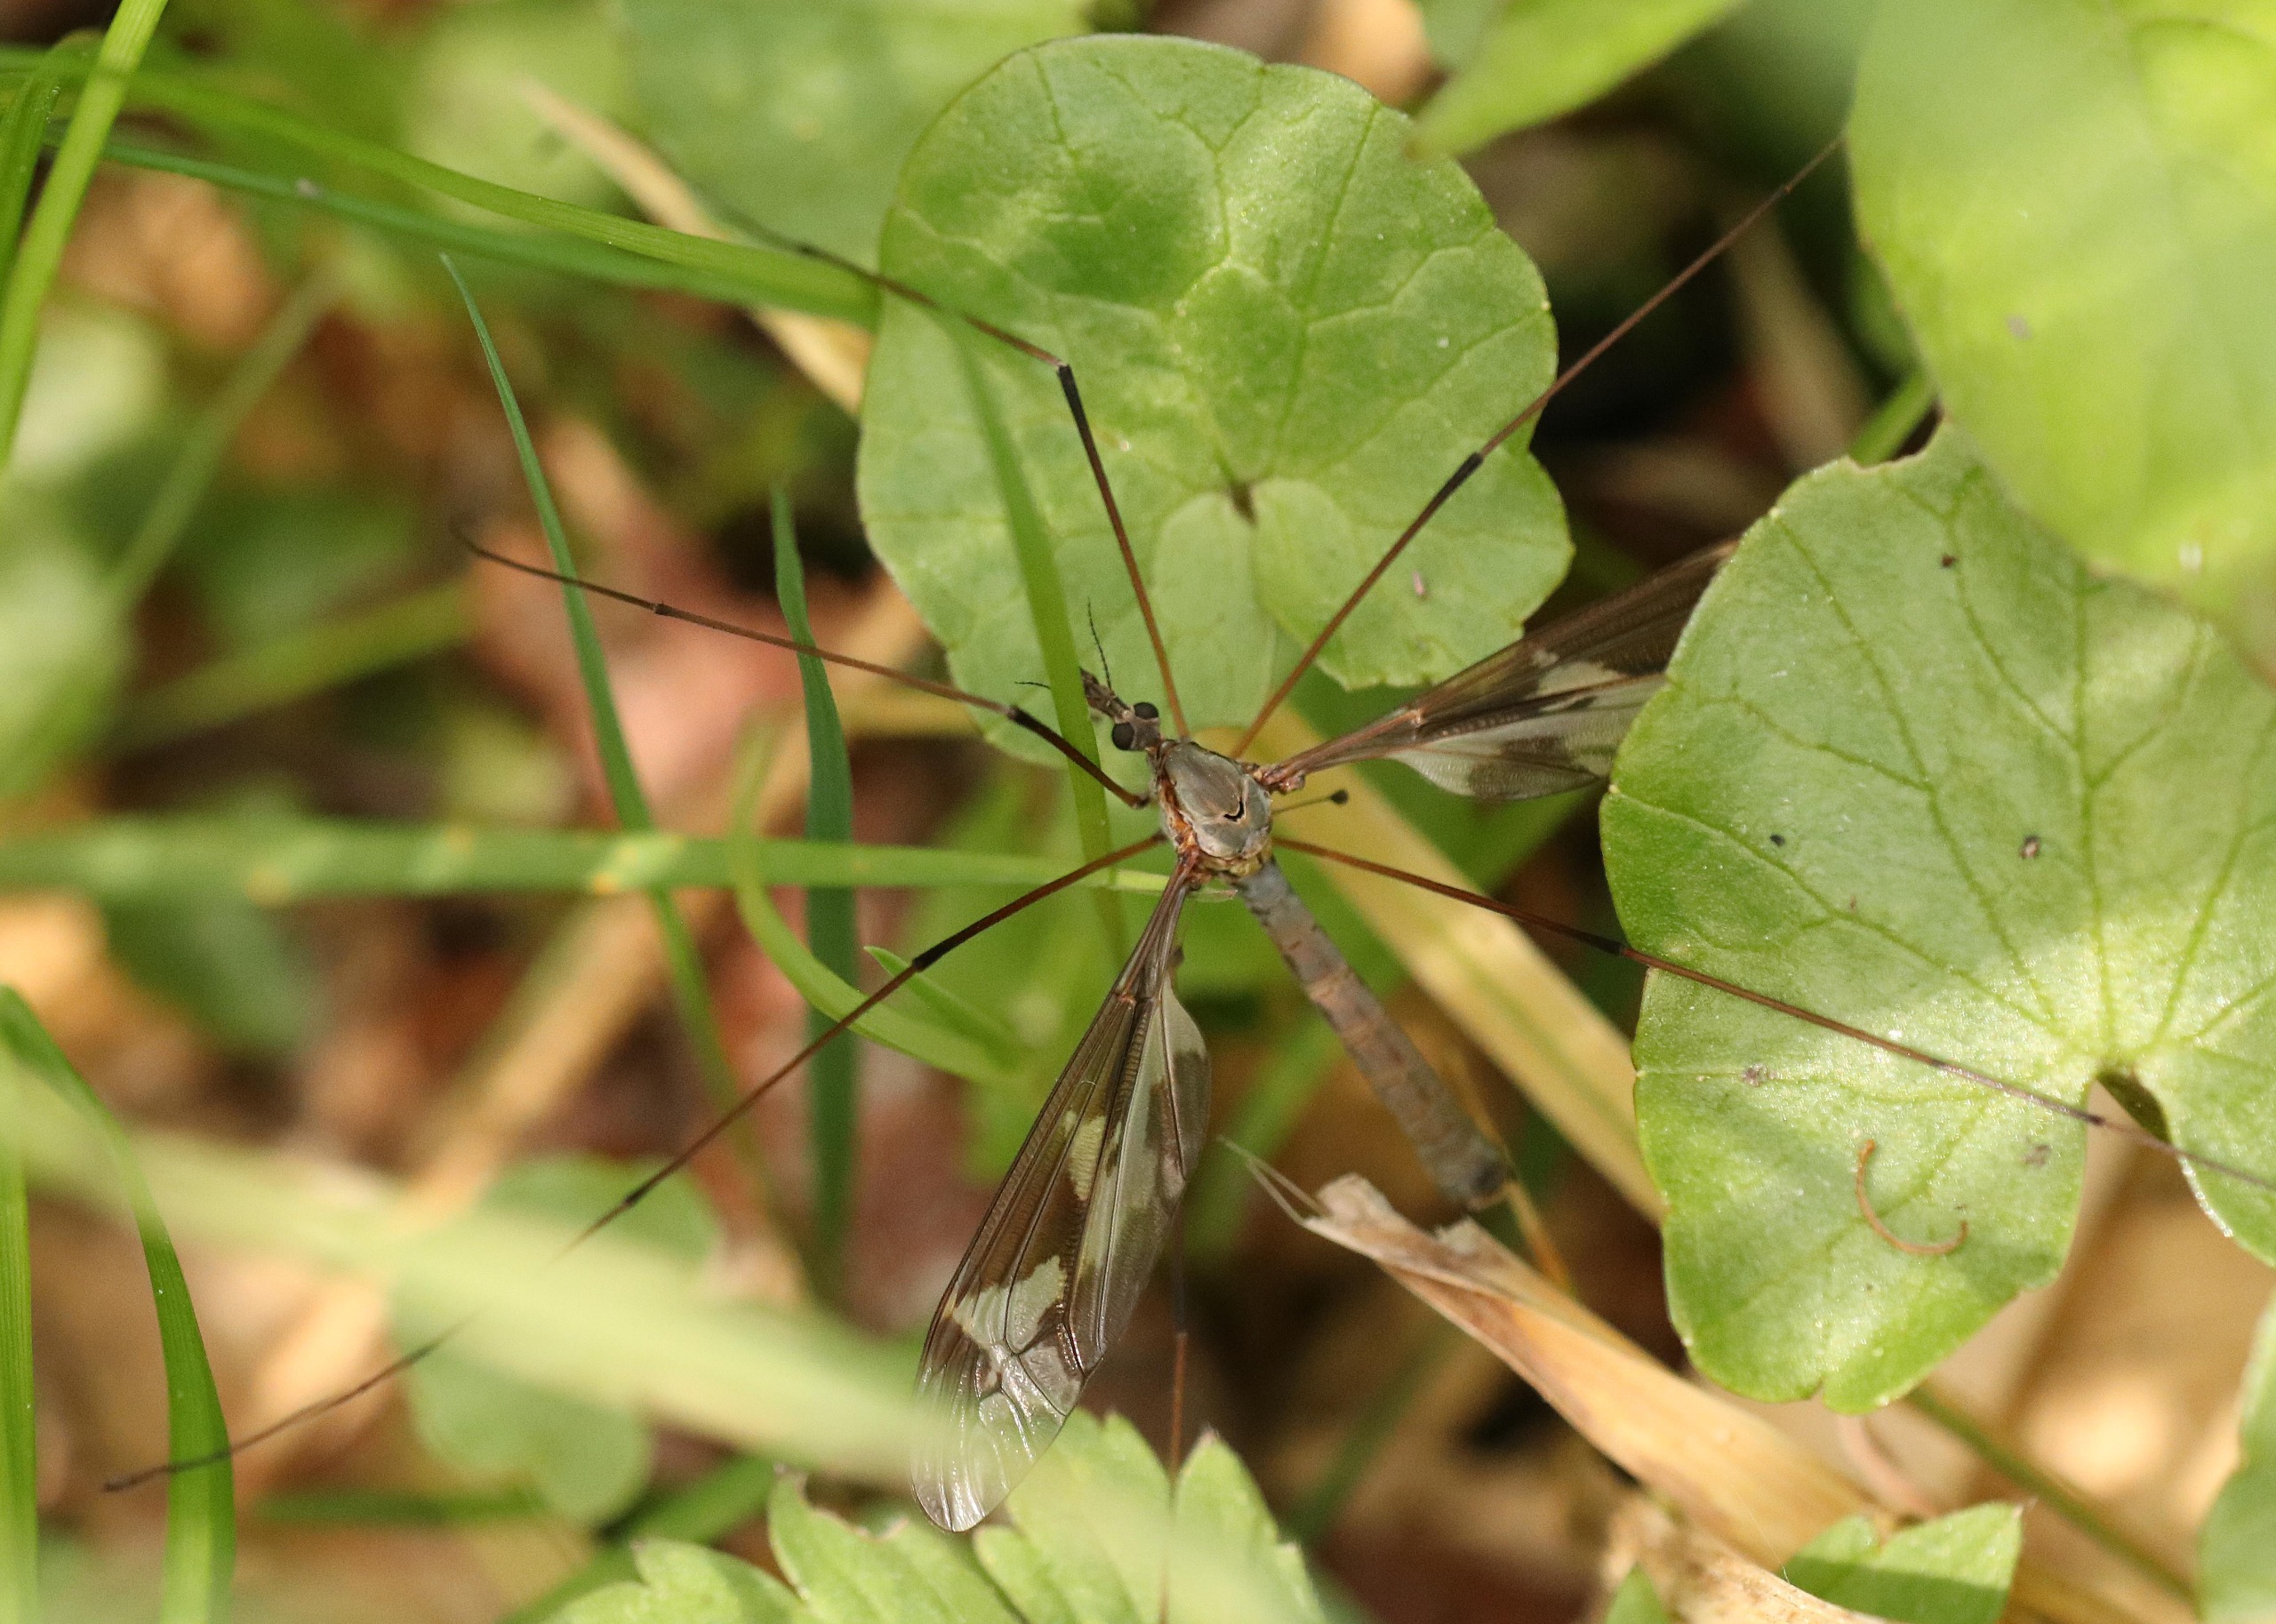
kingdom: Animalia
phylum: Arthropoda
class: Insecta
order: Diptera
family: Tipulidae
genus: Tipula
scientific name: Tipula maxima
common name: Kæmpestankelben
